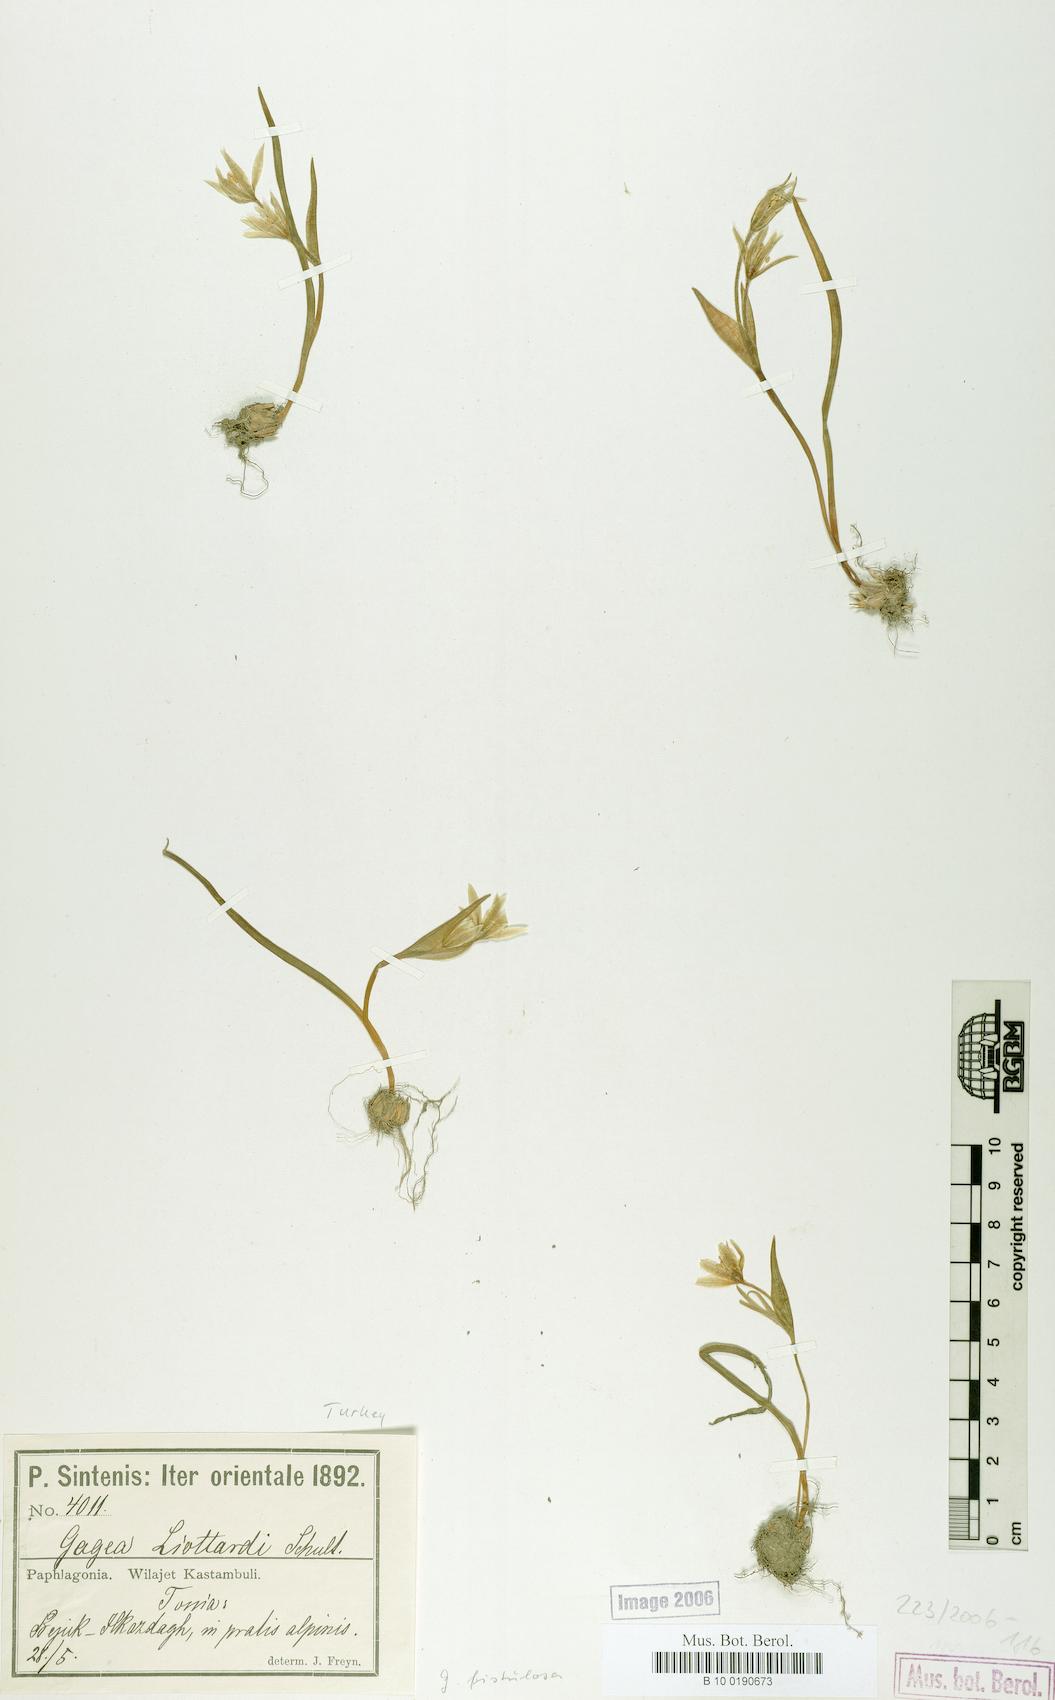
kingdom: Plantae
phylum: Tracheophyta
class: Liliopsida
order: Liliales
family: Liliaceae
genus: Gagea
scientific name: Gagea bohemica
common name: Early star-of-bethlehem
